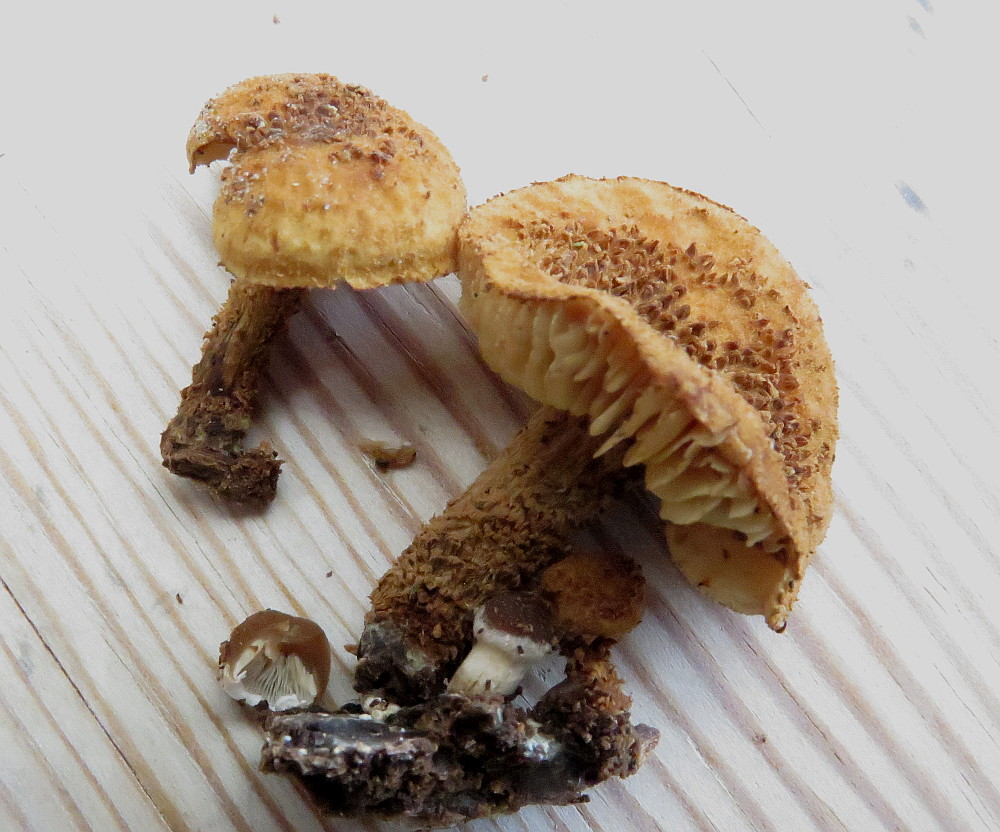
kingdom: Fungi
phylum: Basidiomycota
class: Agaricomycetes
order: Agaricales
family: Tubariaceae
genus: Flammulaster
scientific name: Flammulaster muricatus
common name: pigget grynskælhat
